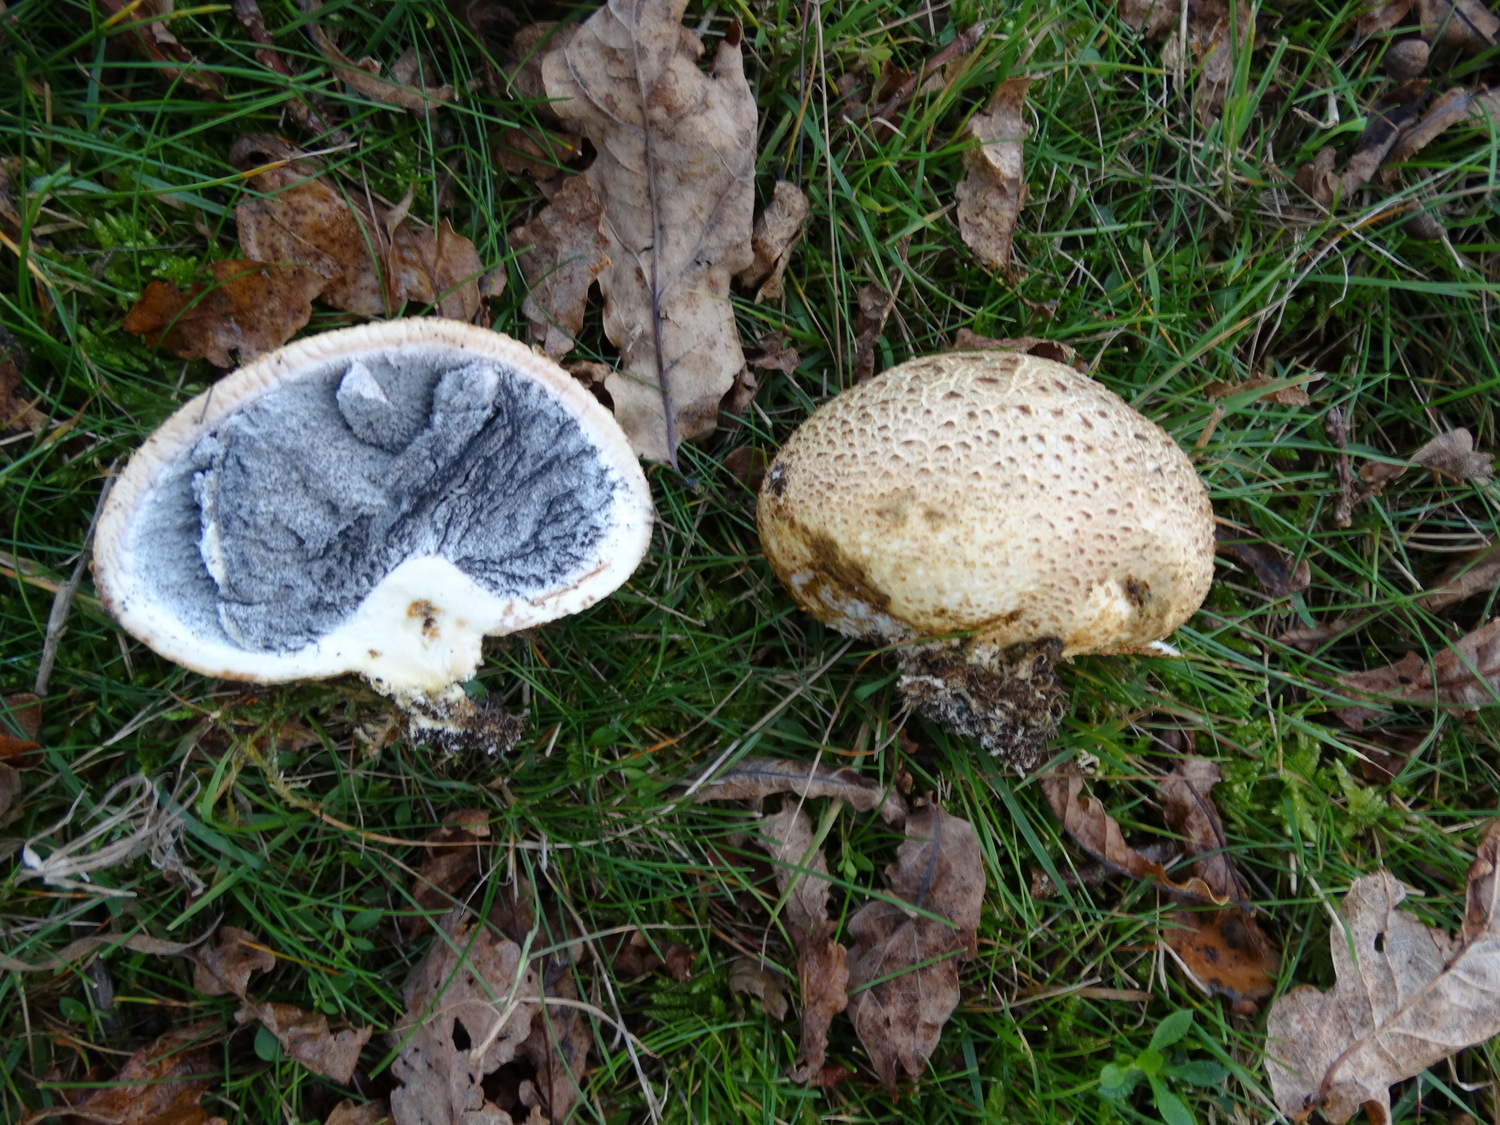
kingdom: Fungi
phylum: Basidiomycota
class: Agaricomycetes
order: Boletales
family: Sclerodermataceae
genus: Scleroderma
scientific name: Scleroderma citrinum
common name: almindelig bruskbold
